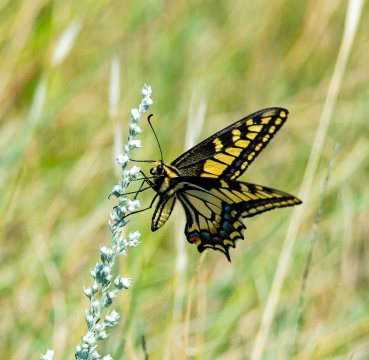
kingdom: Animalia
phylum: Arthropoda
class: Insecta
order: Lepidoptera
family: Papilionidae
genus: Papilio
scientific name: Papilio machaon
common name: Old World Swallowtail
